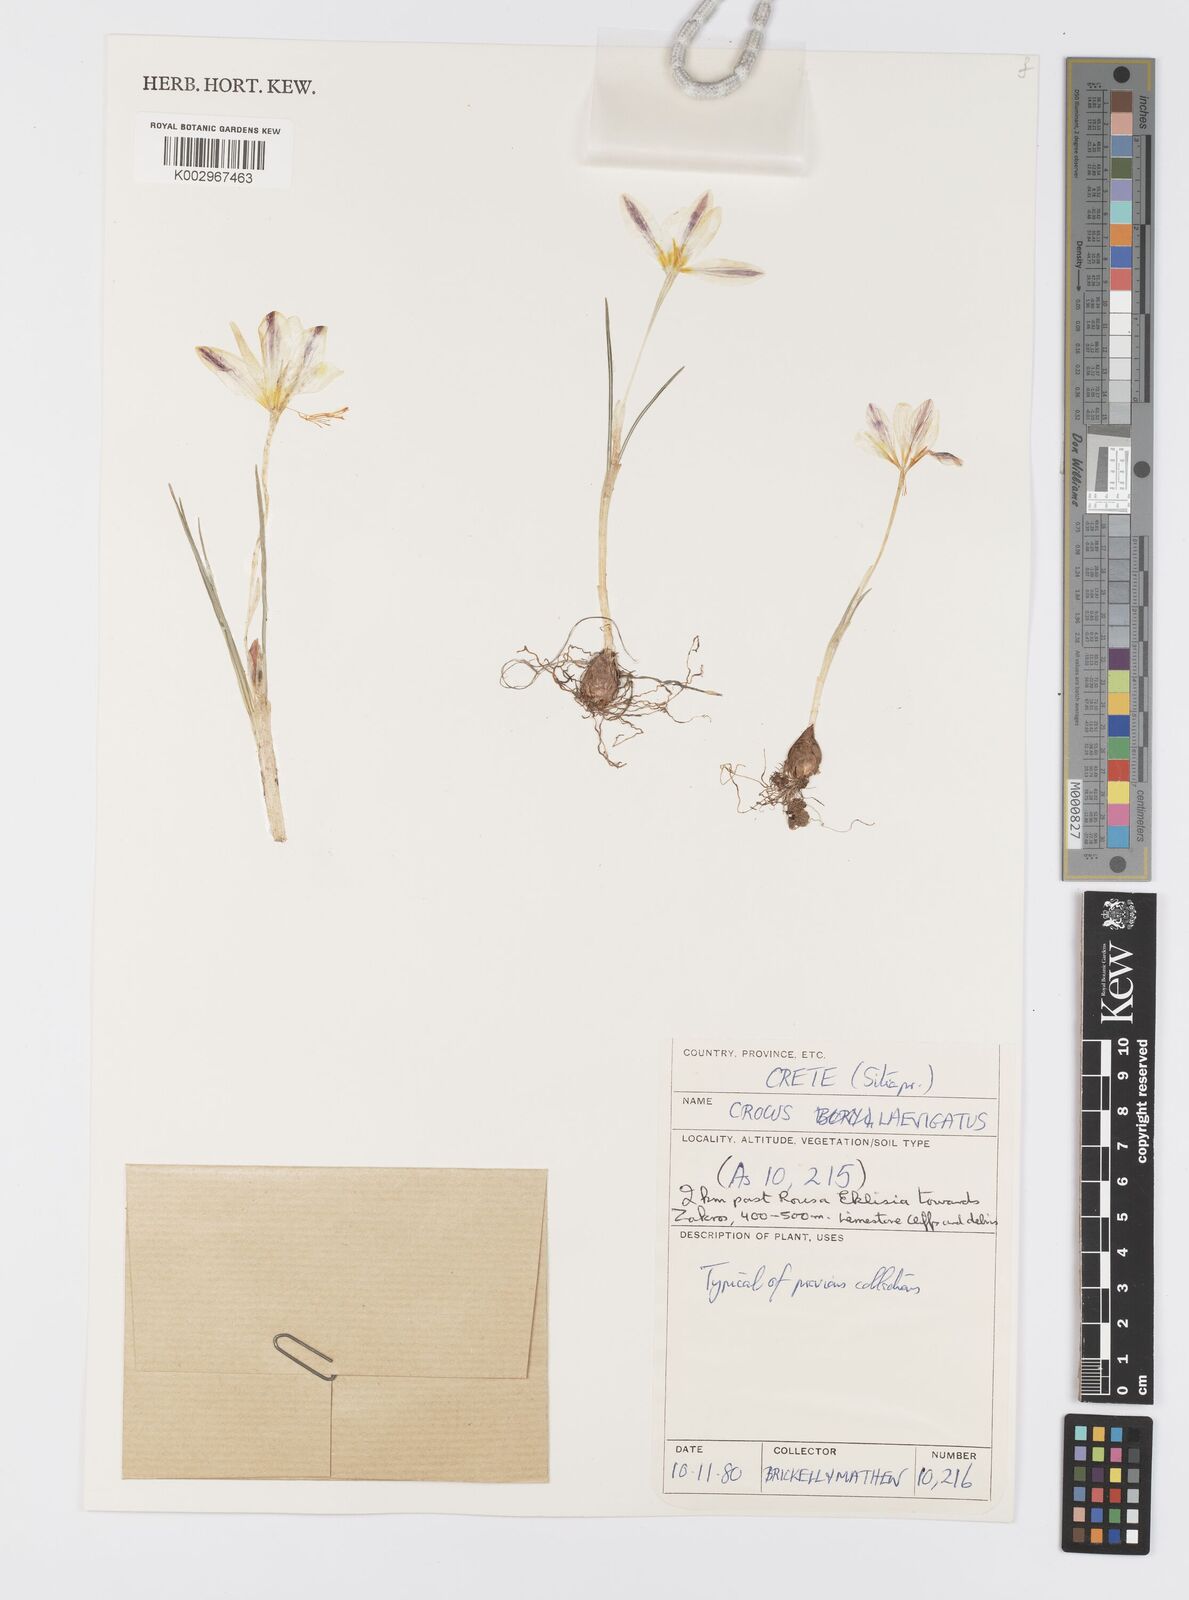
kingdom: Plantae
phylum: Tracheophyta
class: Liliopsida
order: Asparagales
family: Iridaceae
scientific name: Iridaceae
